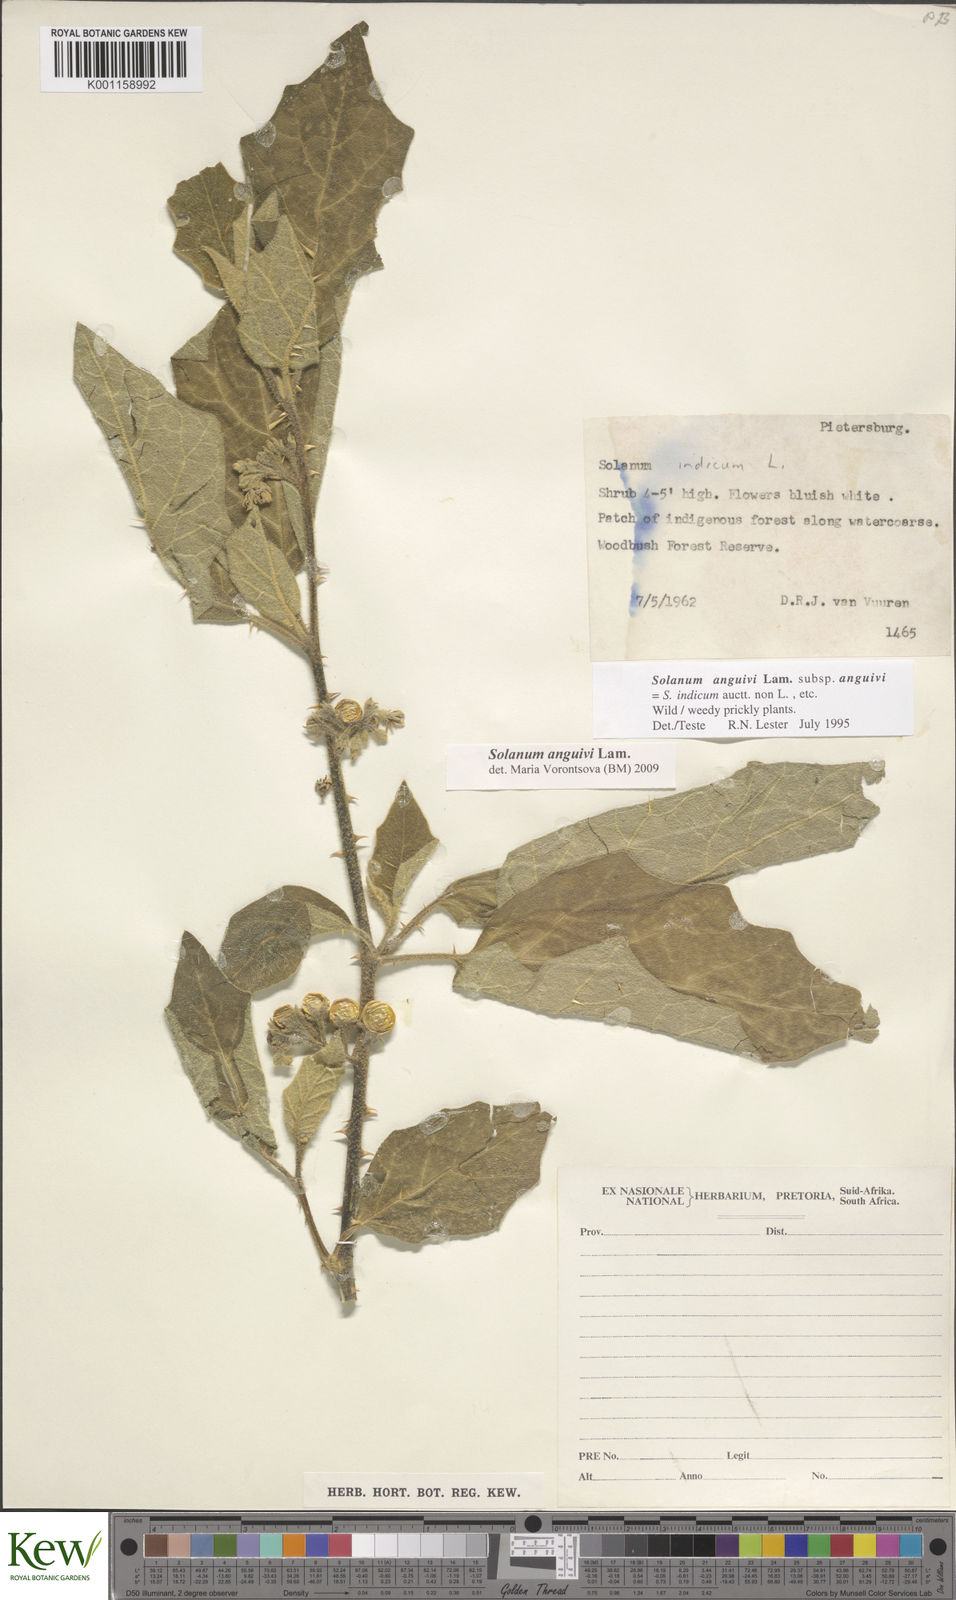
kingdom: Plantae
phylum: Tracheophyta
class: Magnoliopsida
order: Solanales
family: Solanaceae
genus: Solanum
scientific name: Solanum anguivi
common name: Forest bitterberry
